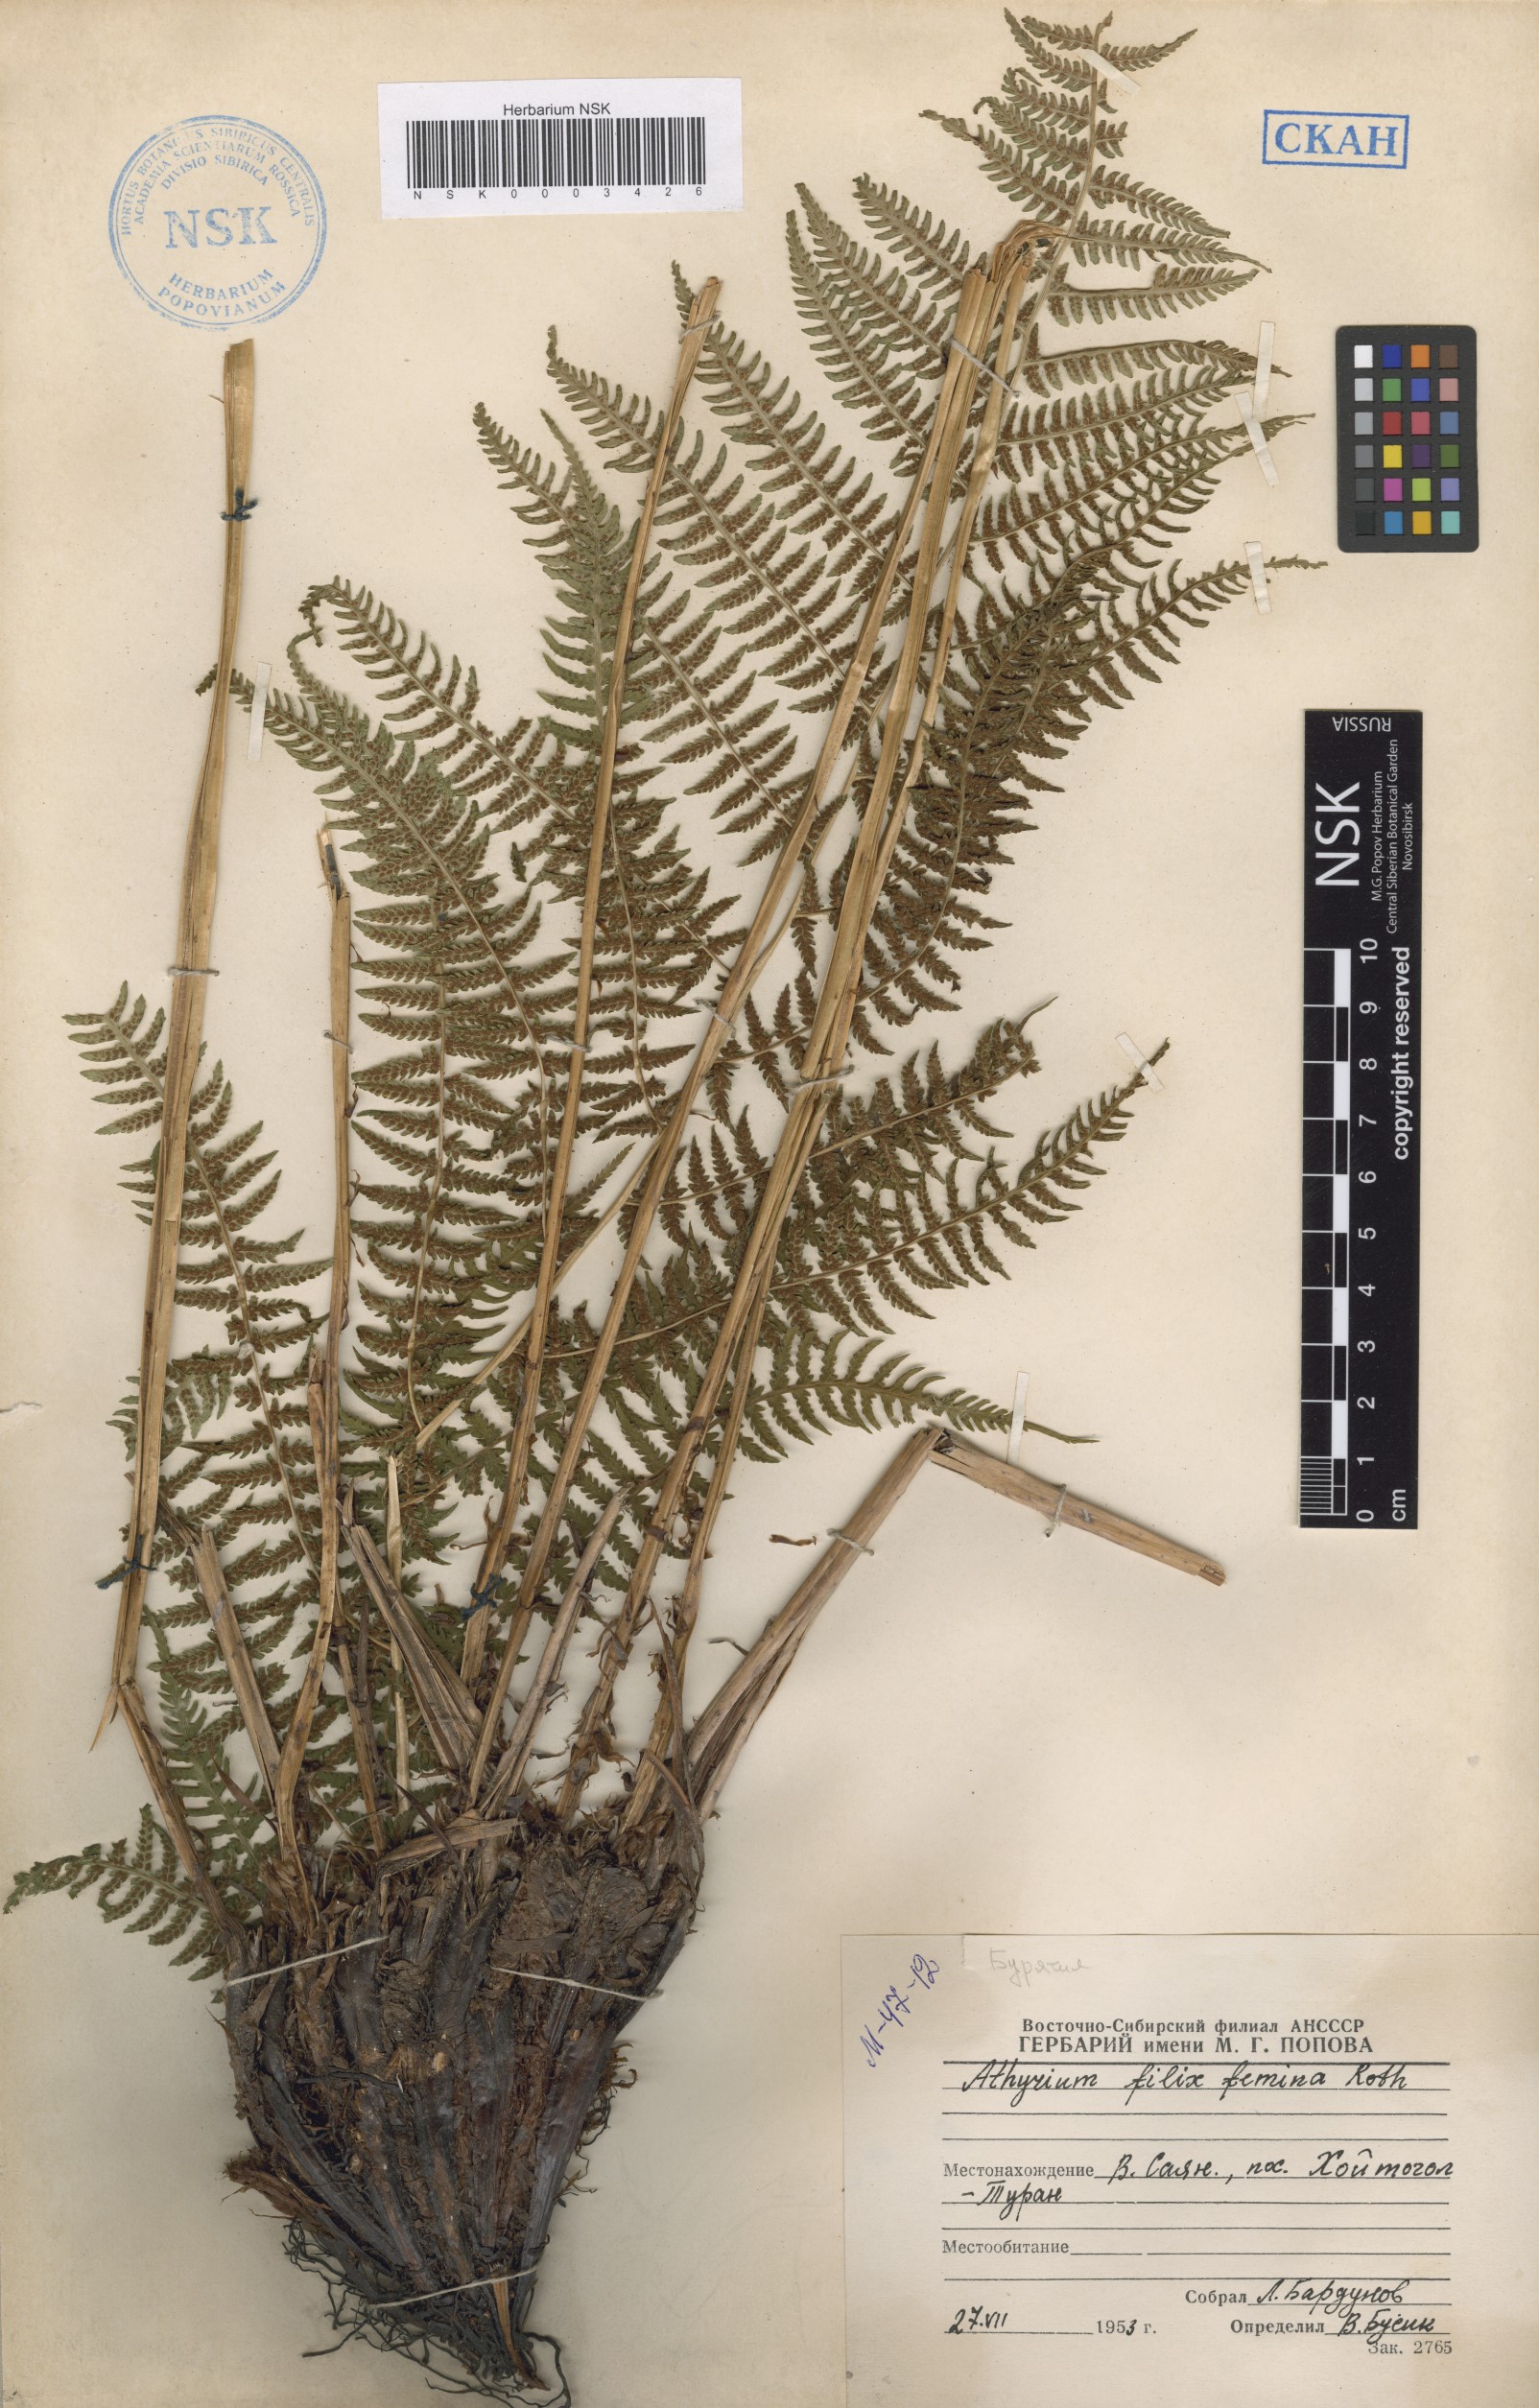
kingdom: Plantae
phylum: Tracheophyta
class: Polypodiopsida
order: Polypodiales
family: Athyriaceae
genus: Athyrium
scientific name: Athyrium filix-femina
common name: Lady fern
